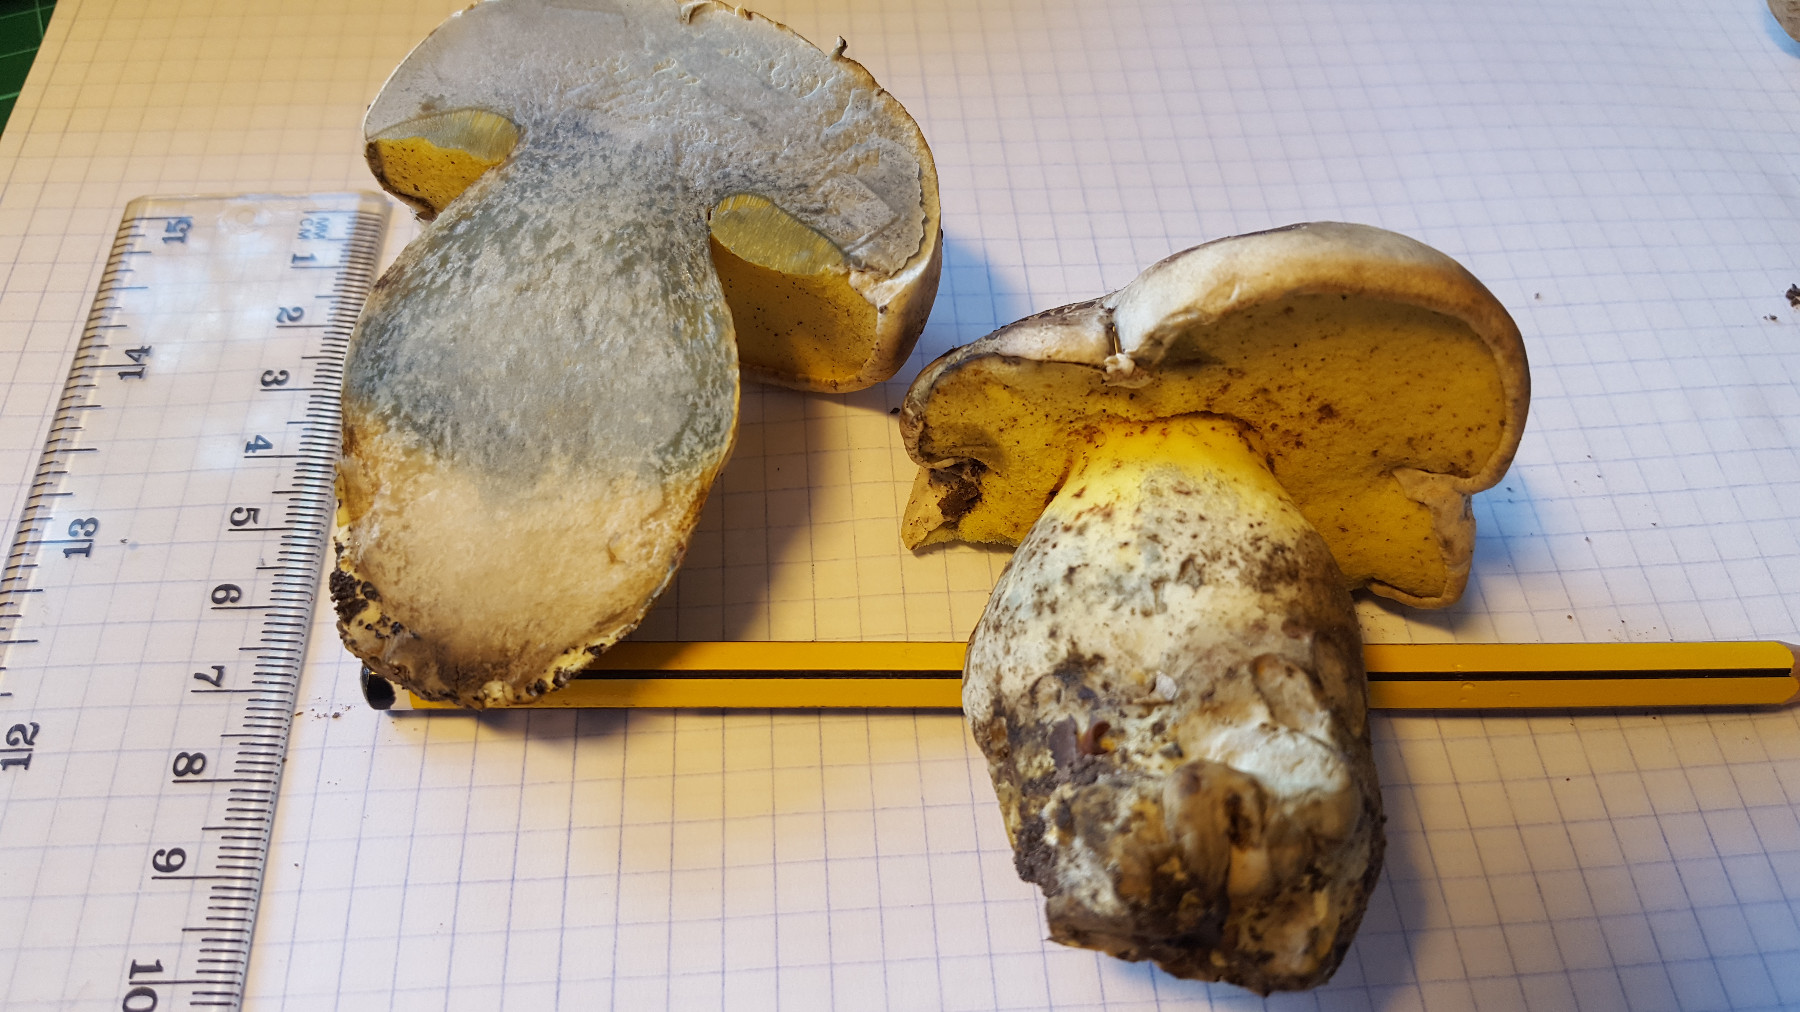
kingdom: Fungi
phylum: Basidiomycota
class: Agaricomycetes
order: Boletales
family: Boletaceae
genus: Caloboletus
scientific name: Caloboletus radicans
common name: rod-rørhat
